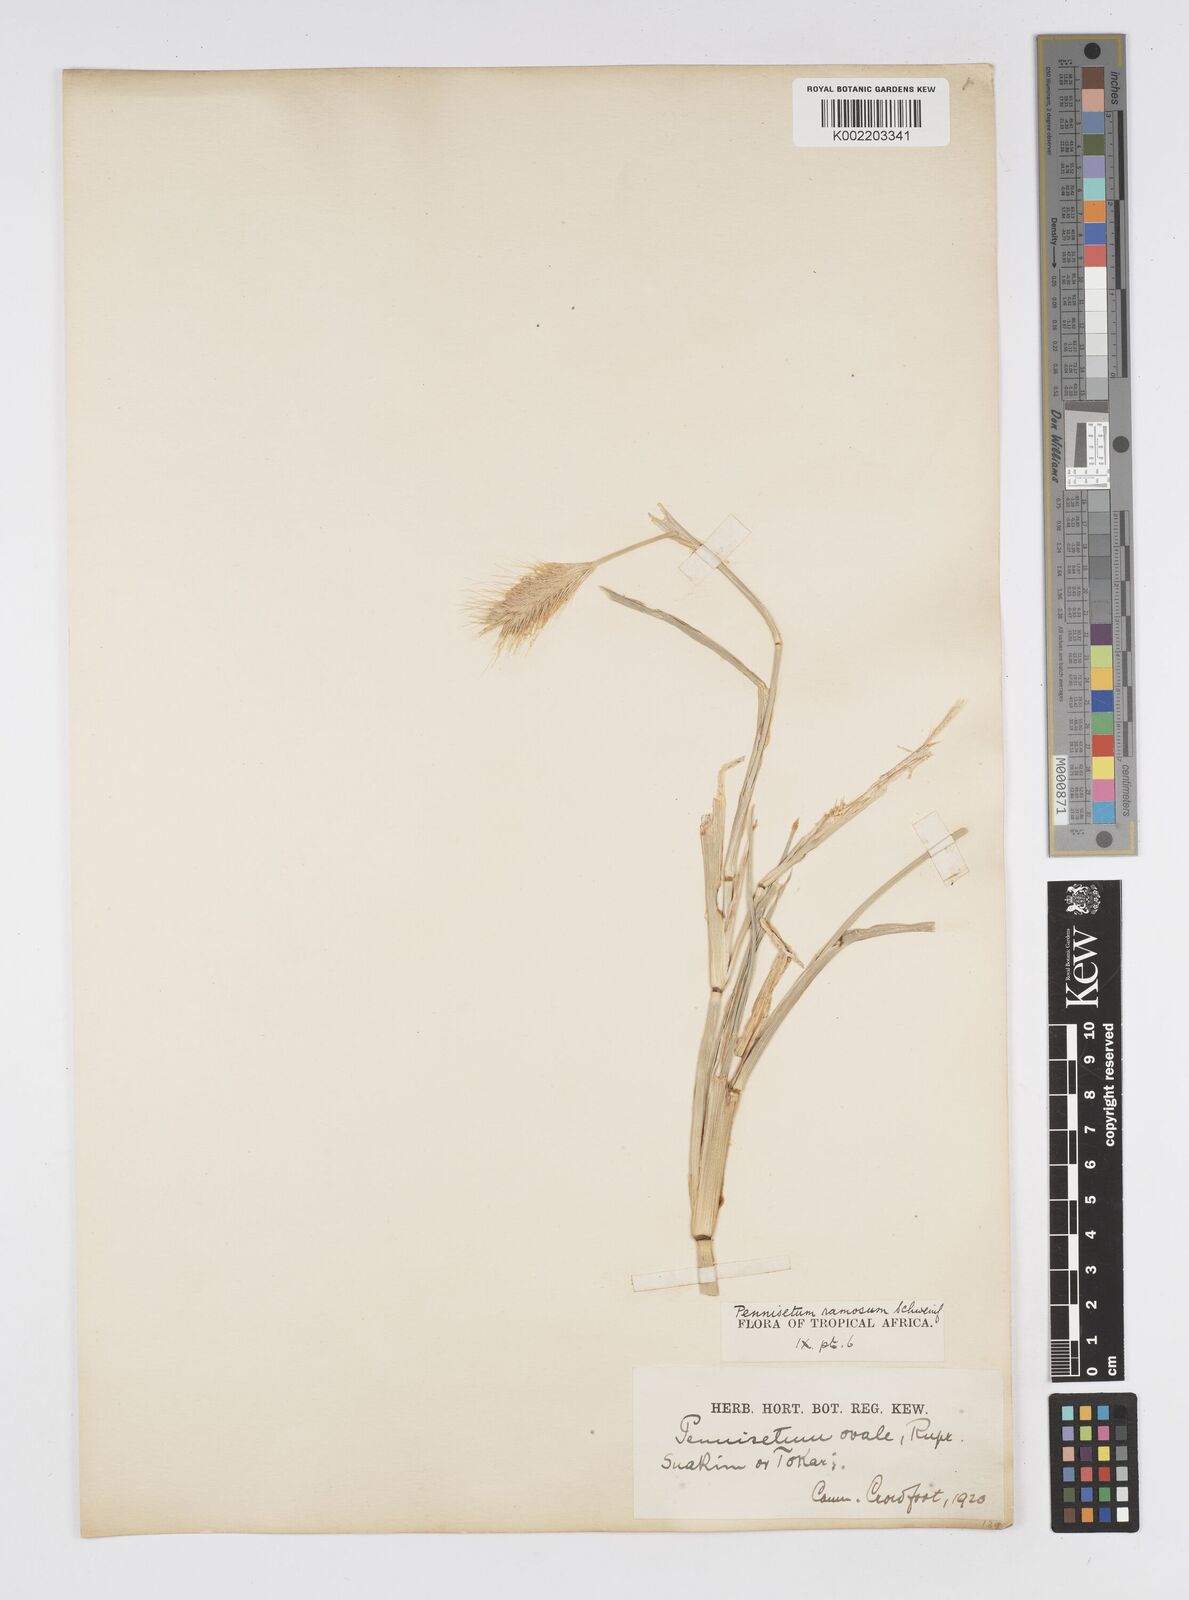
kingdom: Plantae
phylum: Tracheophyta
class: Liliopsida
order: Poales
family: Poaceae
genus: Cenchrus
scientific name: Cenchrus ramosus
